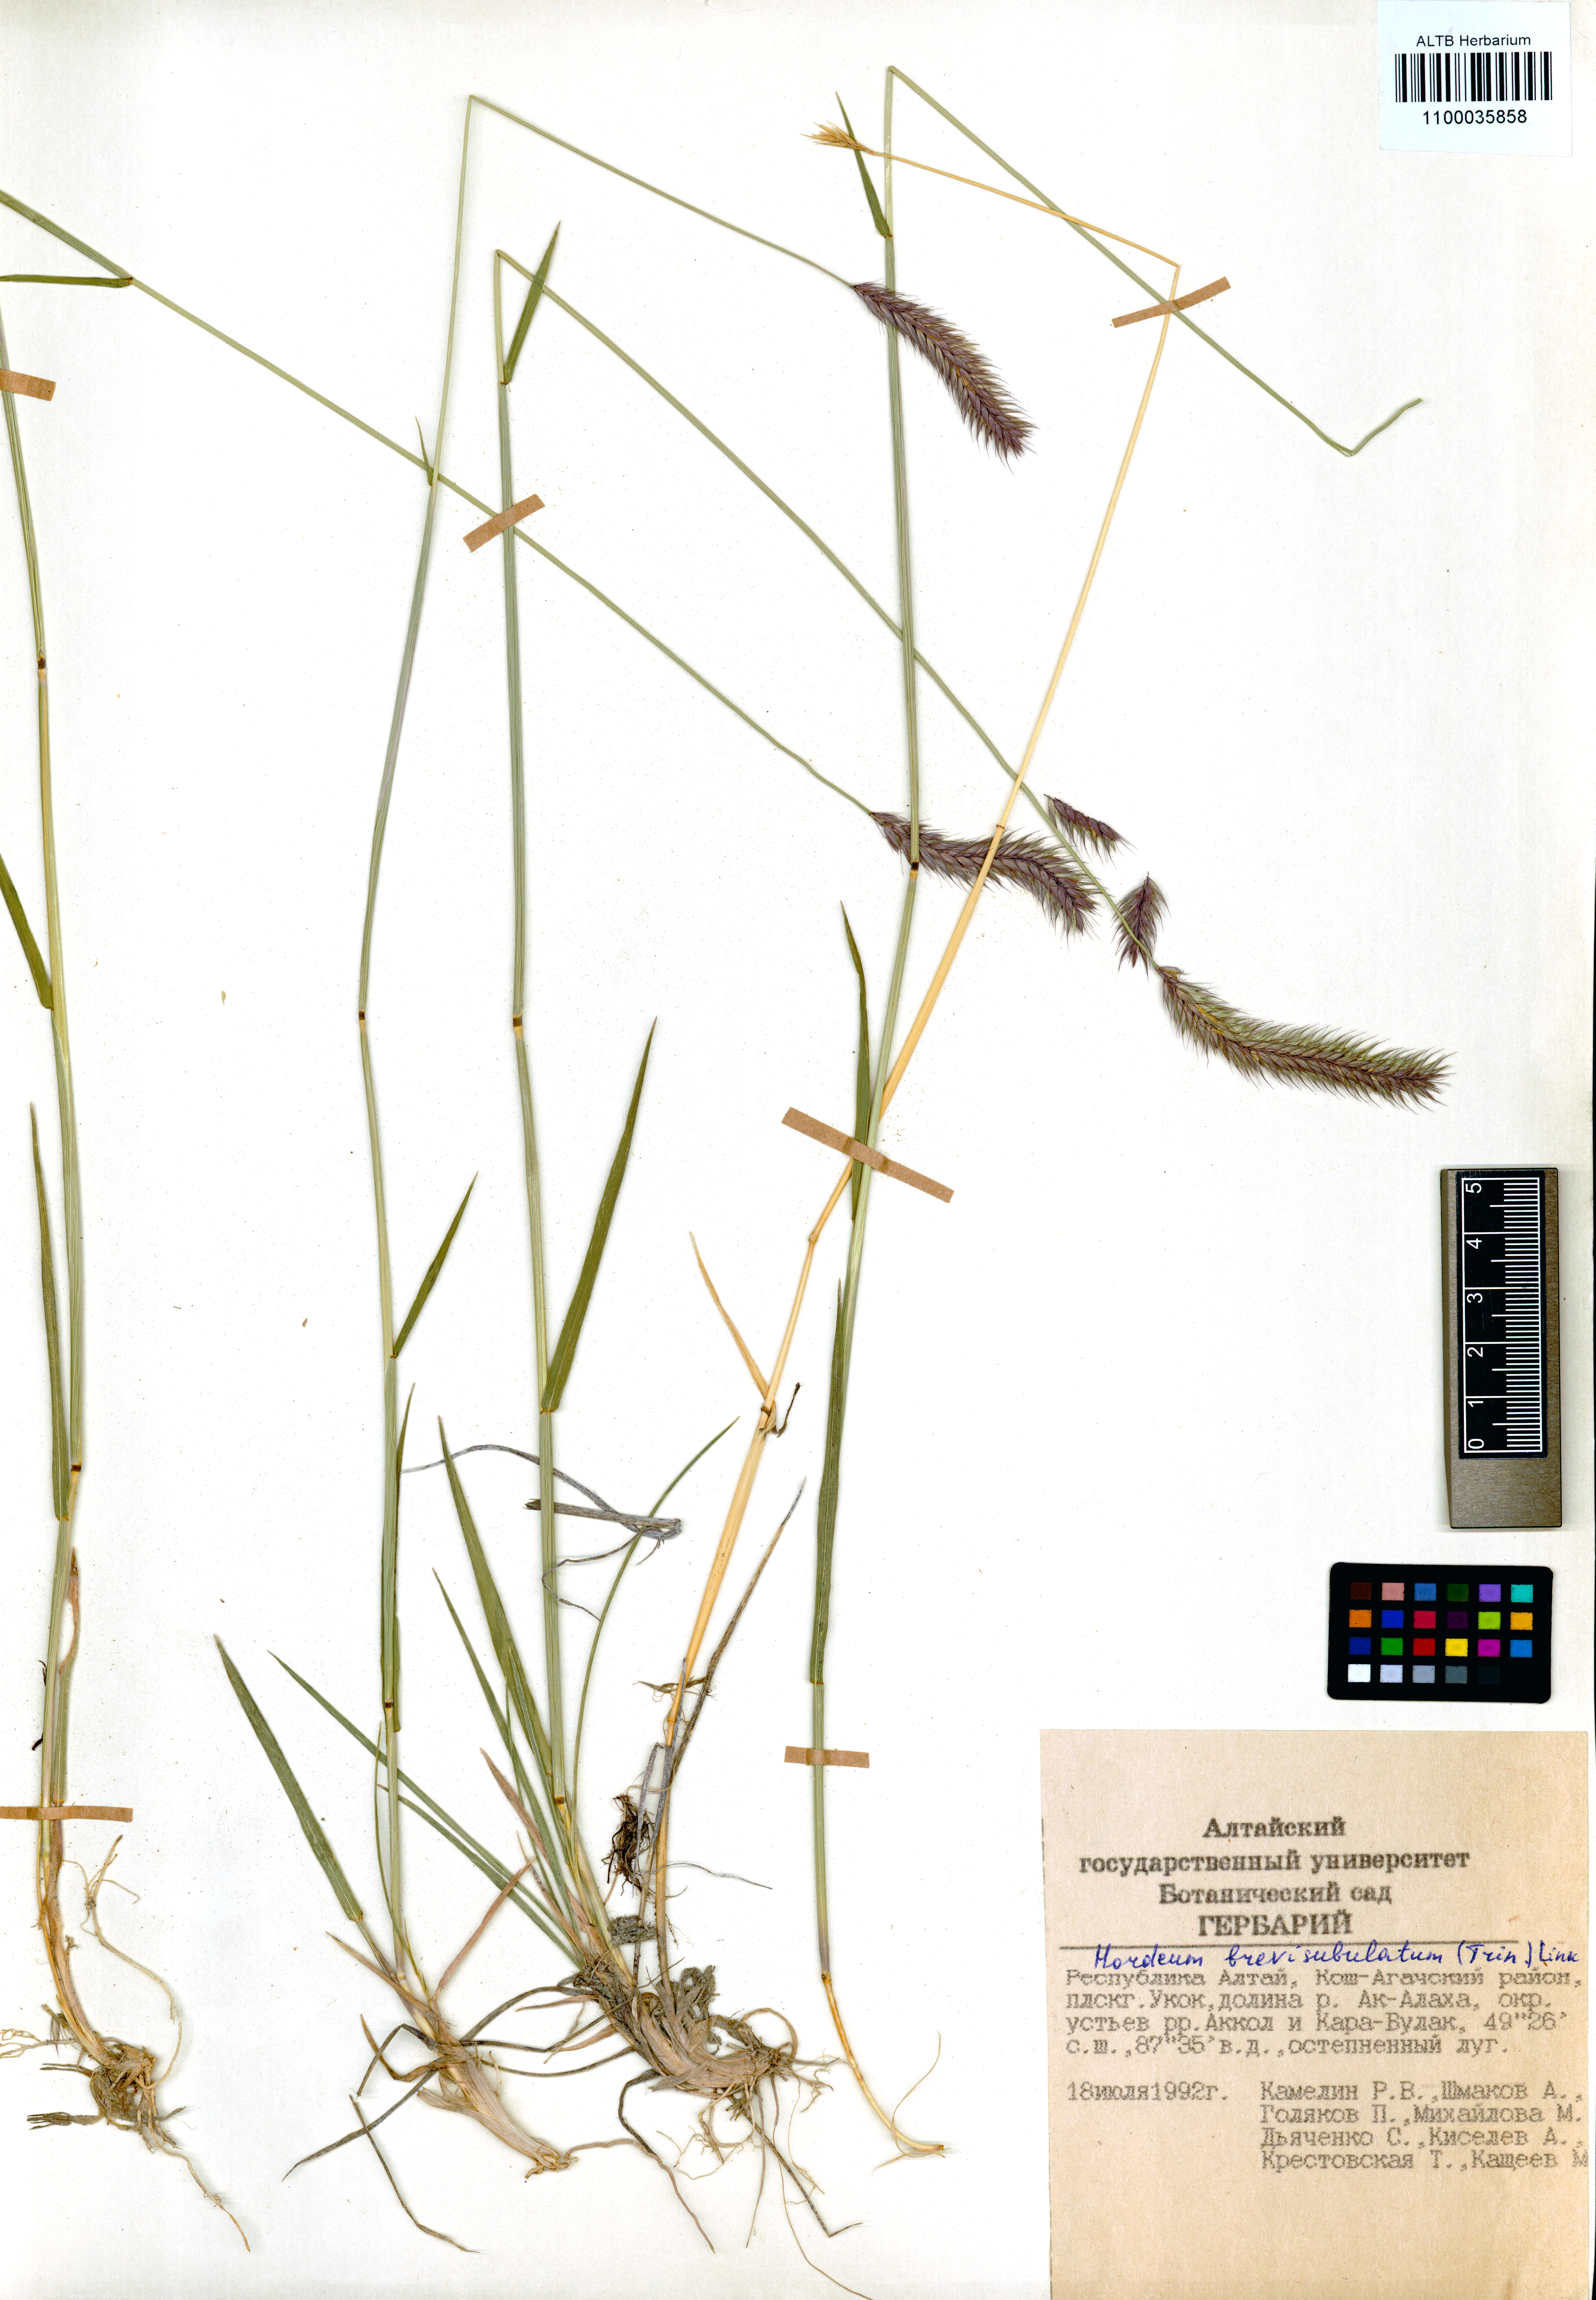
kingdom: Plantae
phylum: Tracheophyta
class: Liliopsida
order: Poales
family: Poaceae
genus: Hordeum
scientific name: Hordeum brevisubulatum
